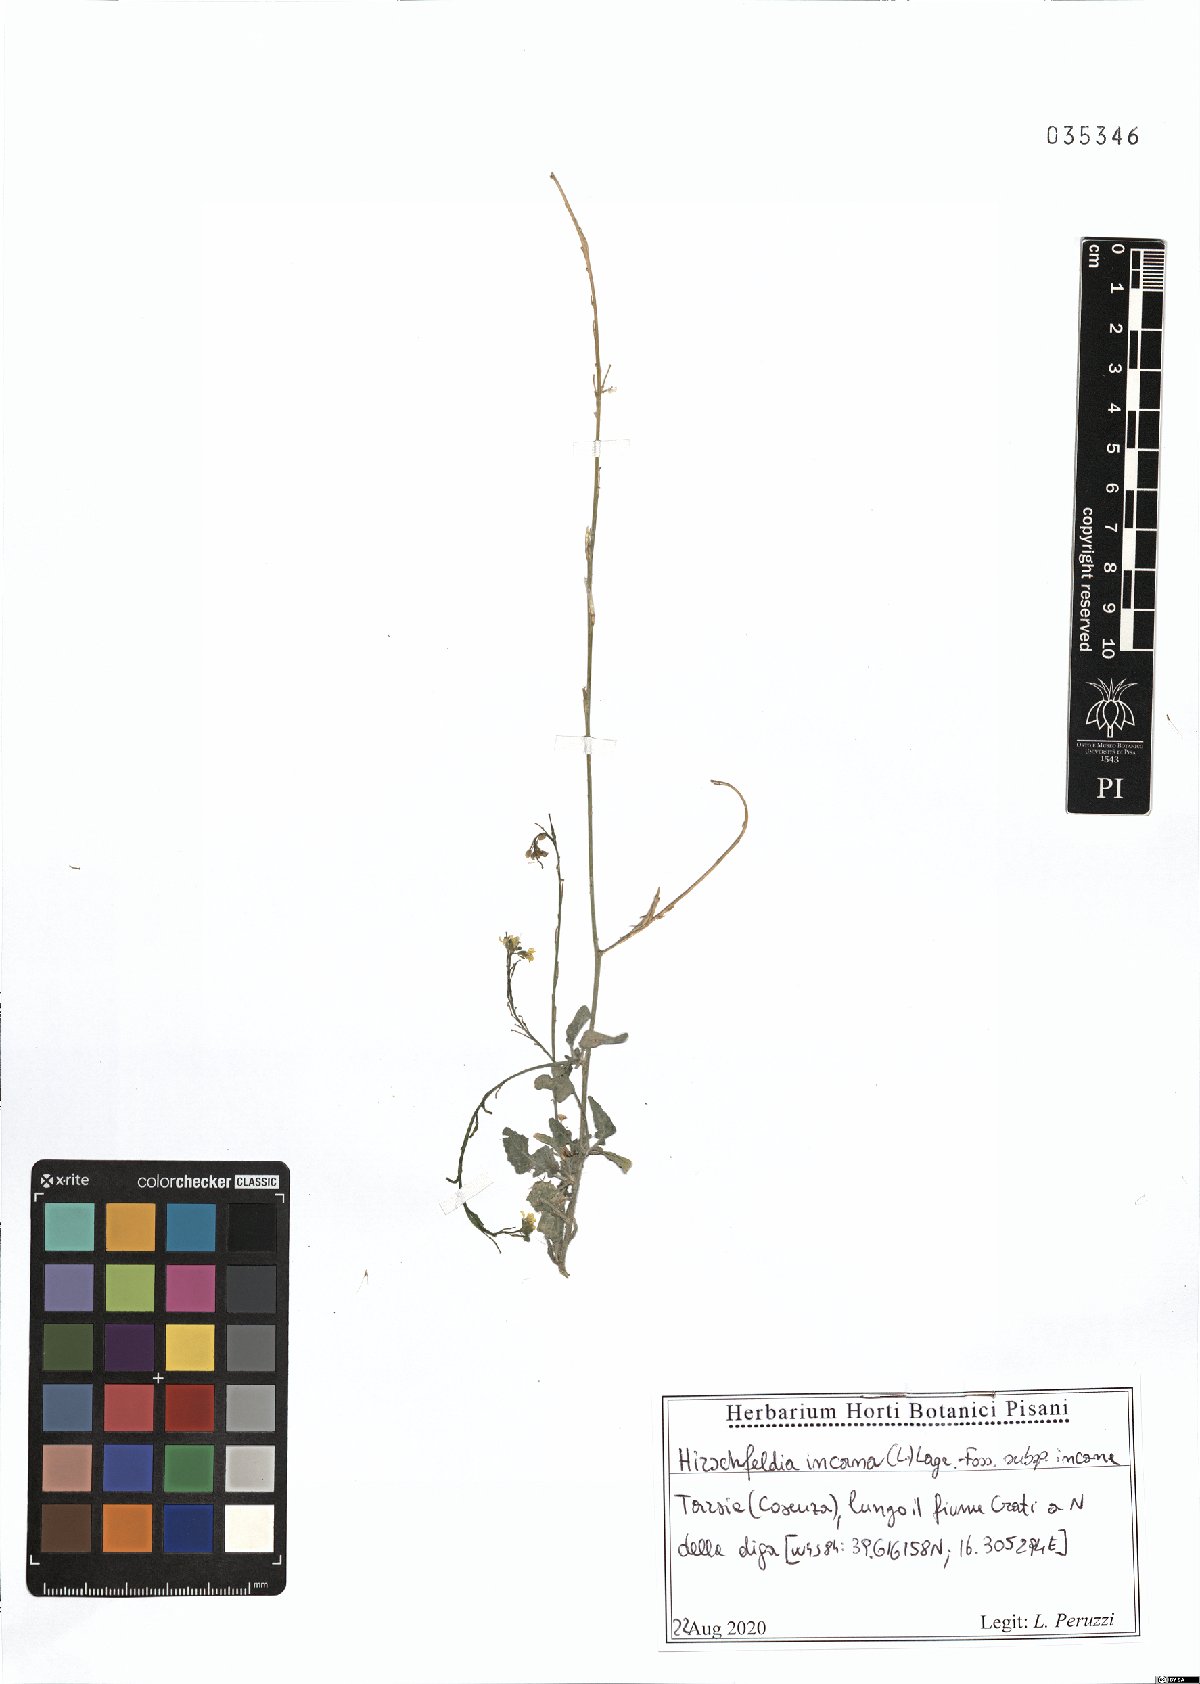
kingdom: Plantae
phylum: Tracheophyta
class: Magnoliopsida
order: Brassicales
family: Brassicaceae
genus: Hirschfeldia
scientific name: Hirschfeldia incana
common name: Hoary mustard
